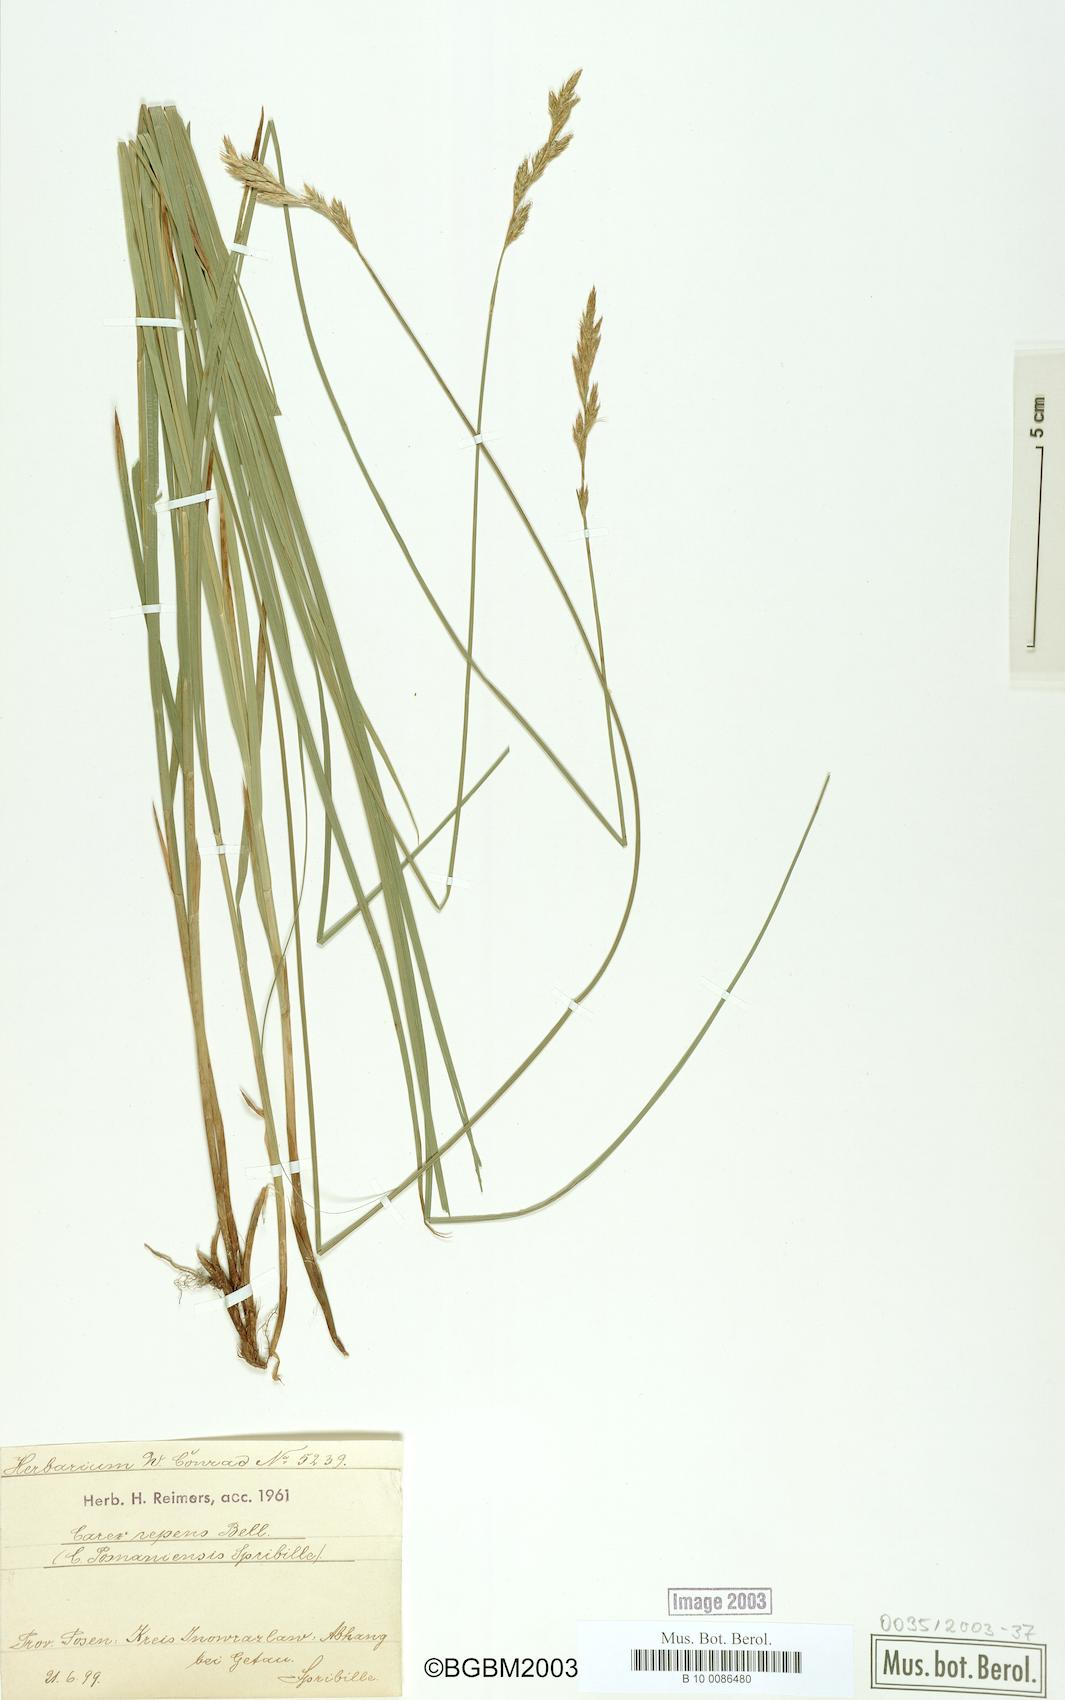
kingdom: Plantae
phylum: Tracheophyta
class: Liliopsida
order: Poales
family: Cyperaceae
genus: Carex
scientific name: Carex repens
